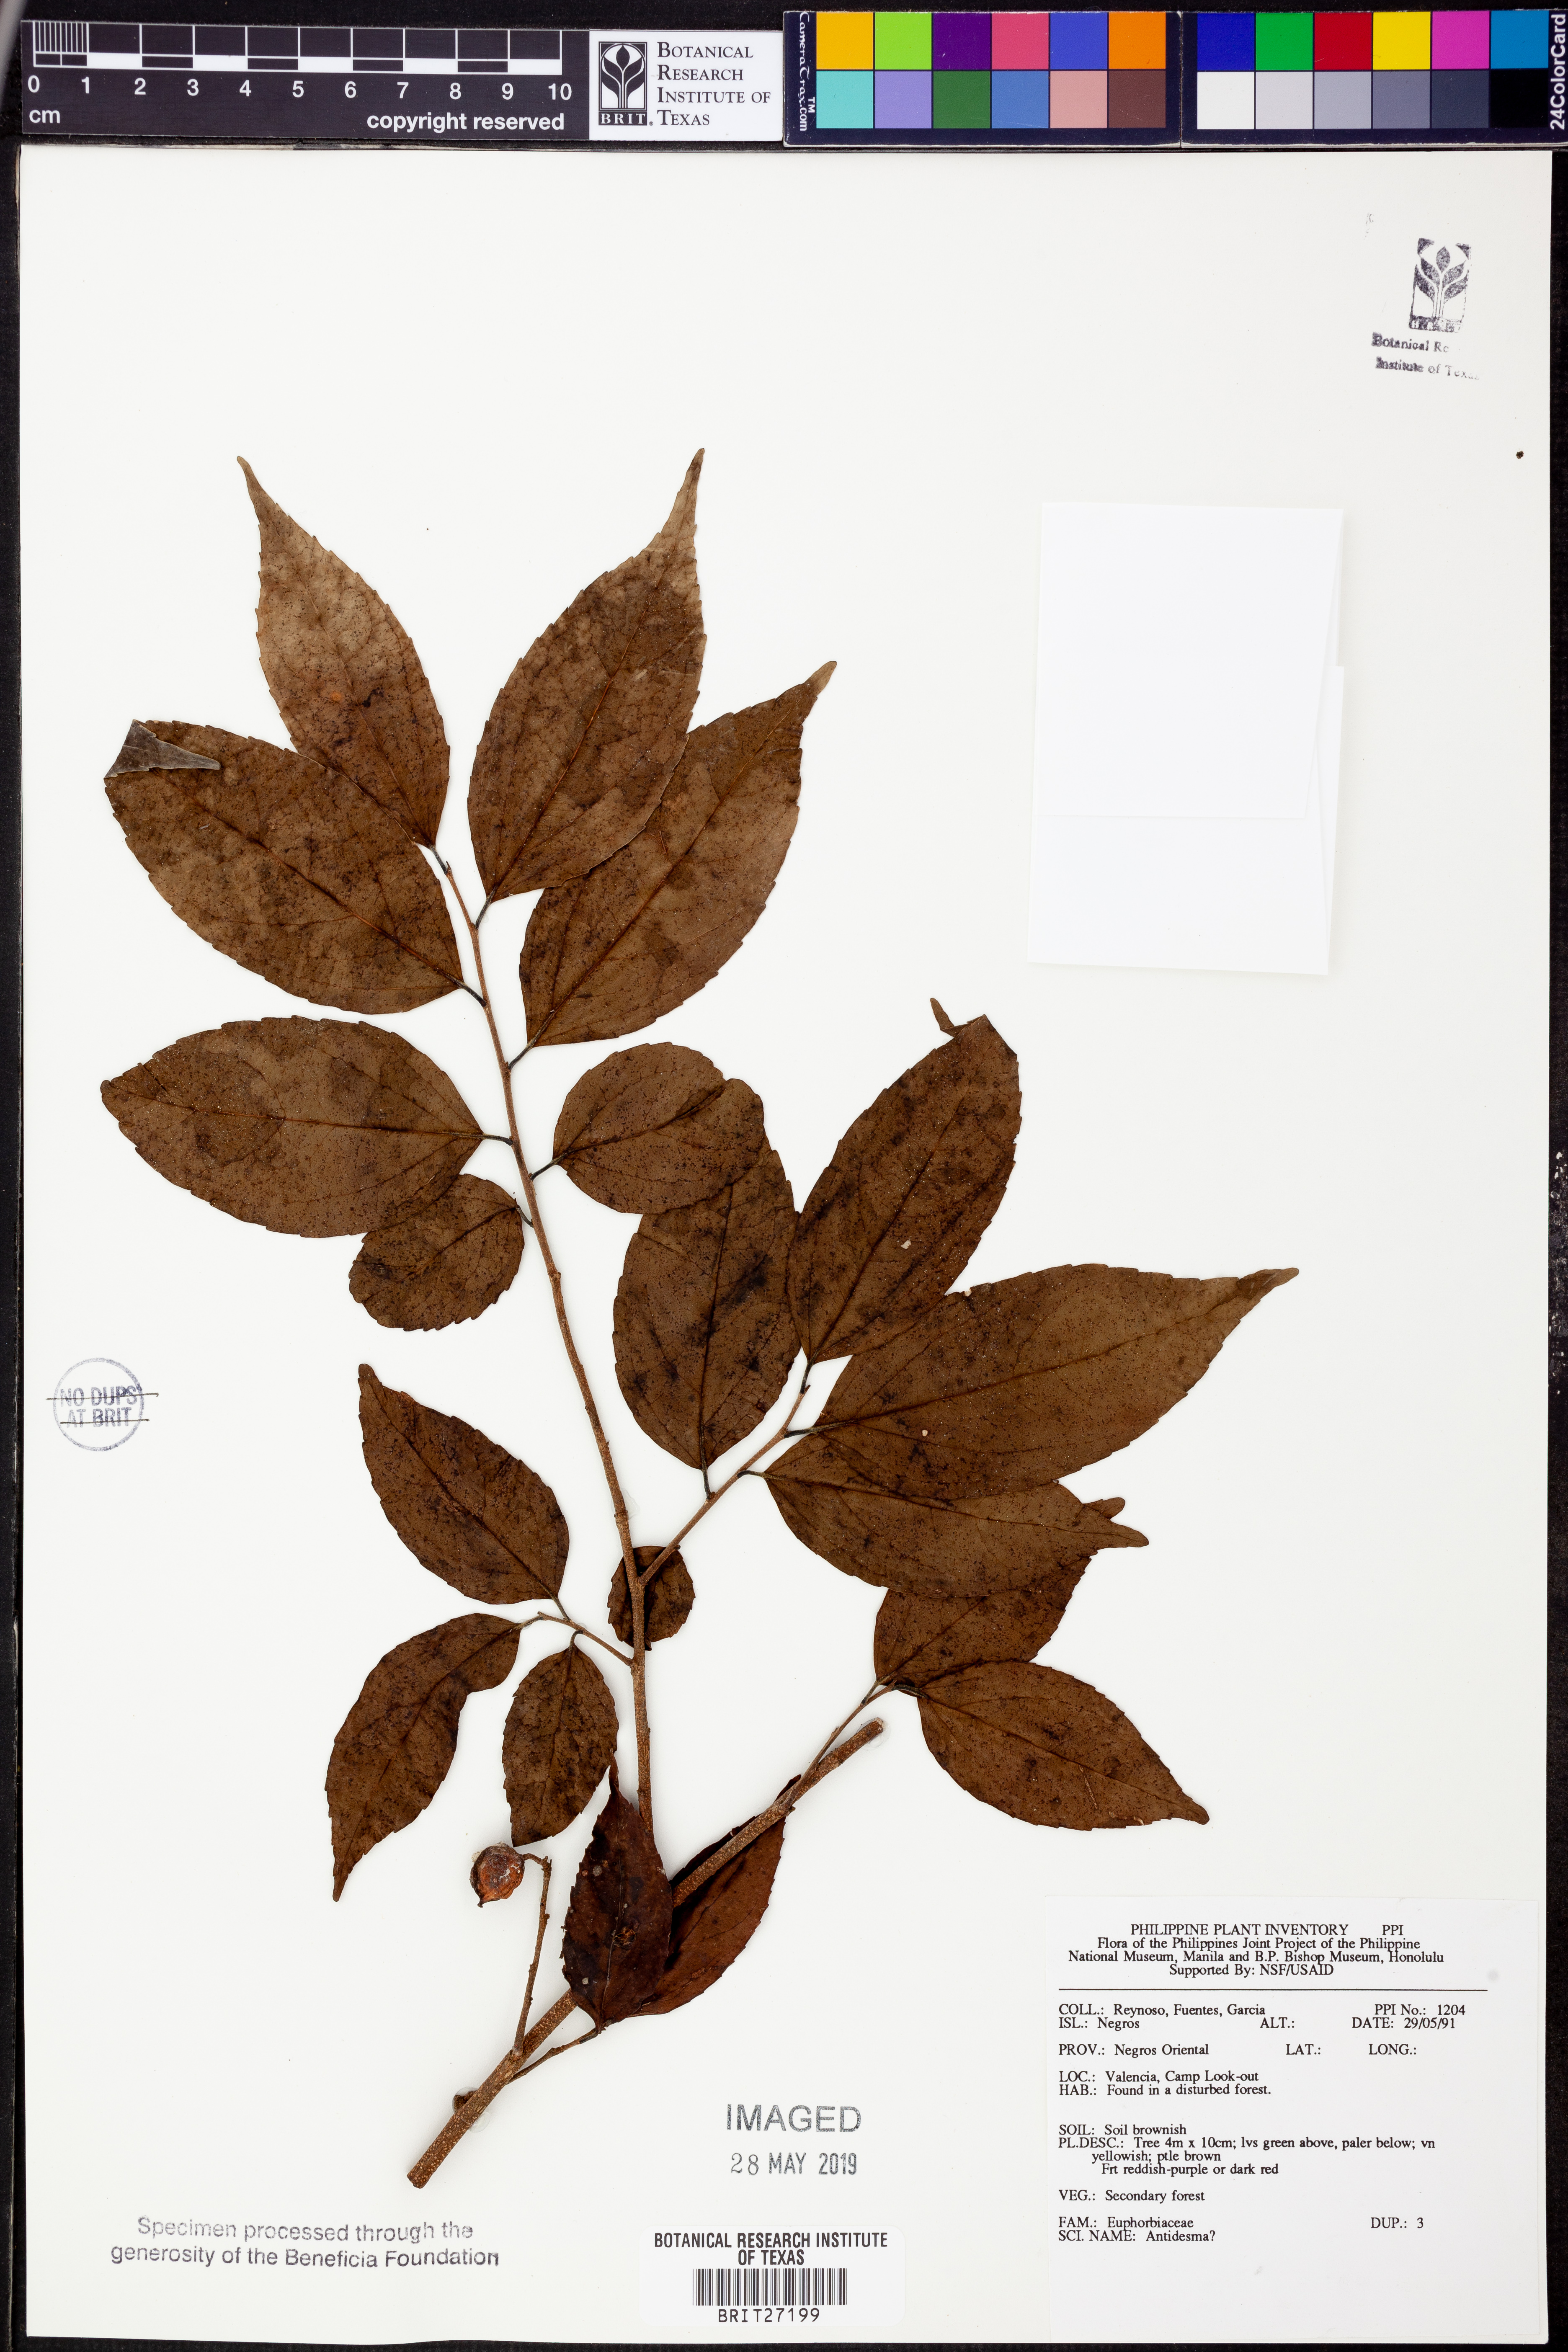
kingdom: Plantae
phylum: Tracheophyta
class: Magnoliopsida
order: Malpighiales
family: Phyllanthaceae
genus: Antidesma
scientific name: Antidesma
